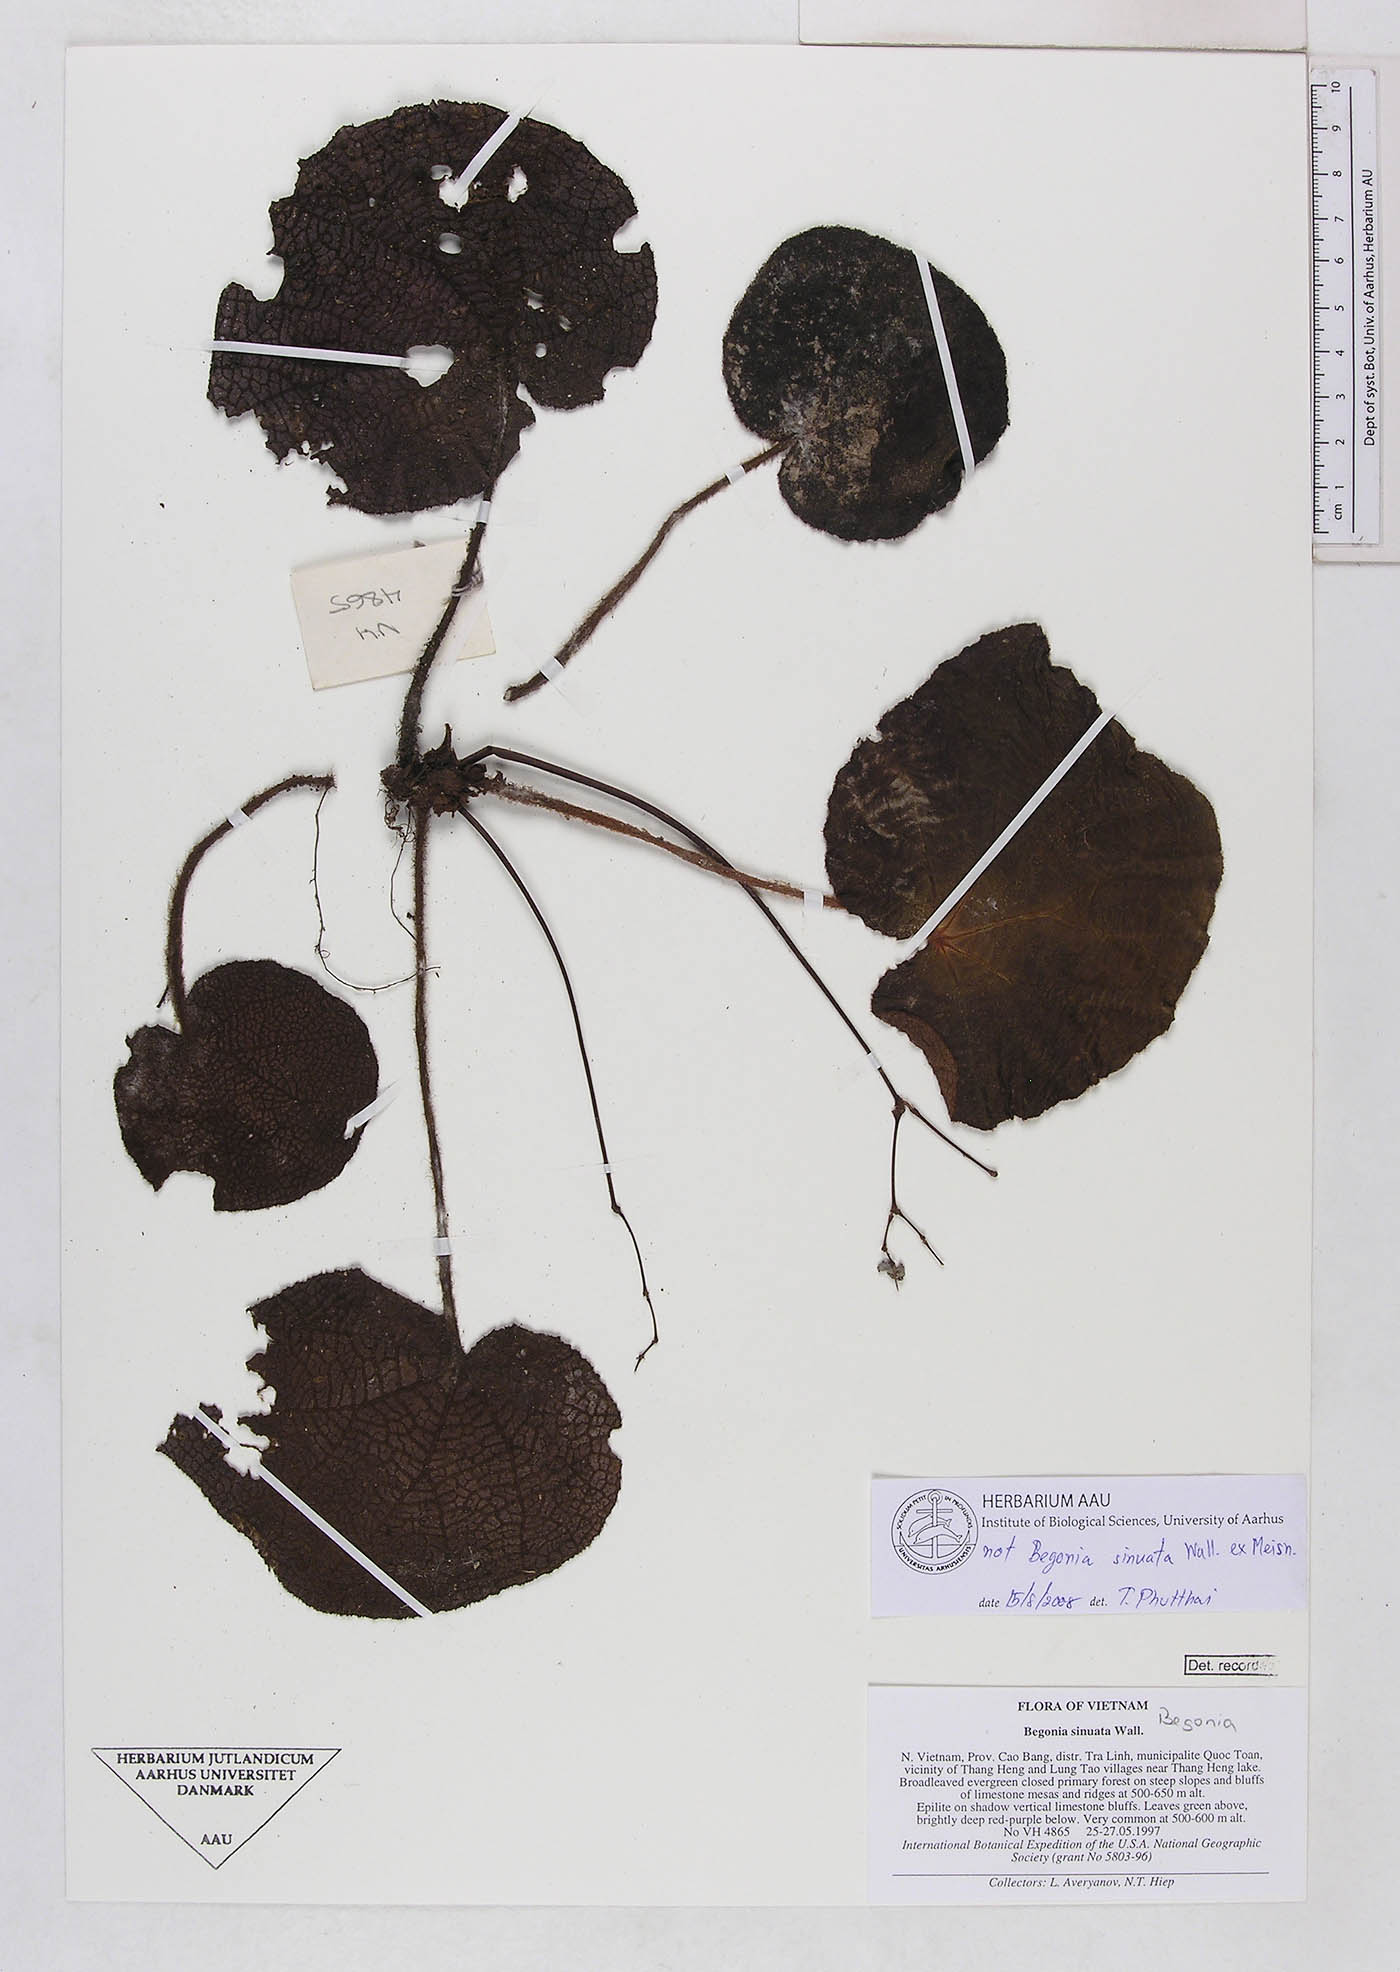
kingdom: Plantae
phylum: Tracheophyta
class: Magnoliopsida
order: Cucurbitales
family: Begoniaceae
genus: Begonia
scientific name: Begonia
